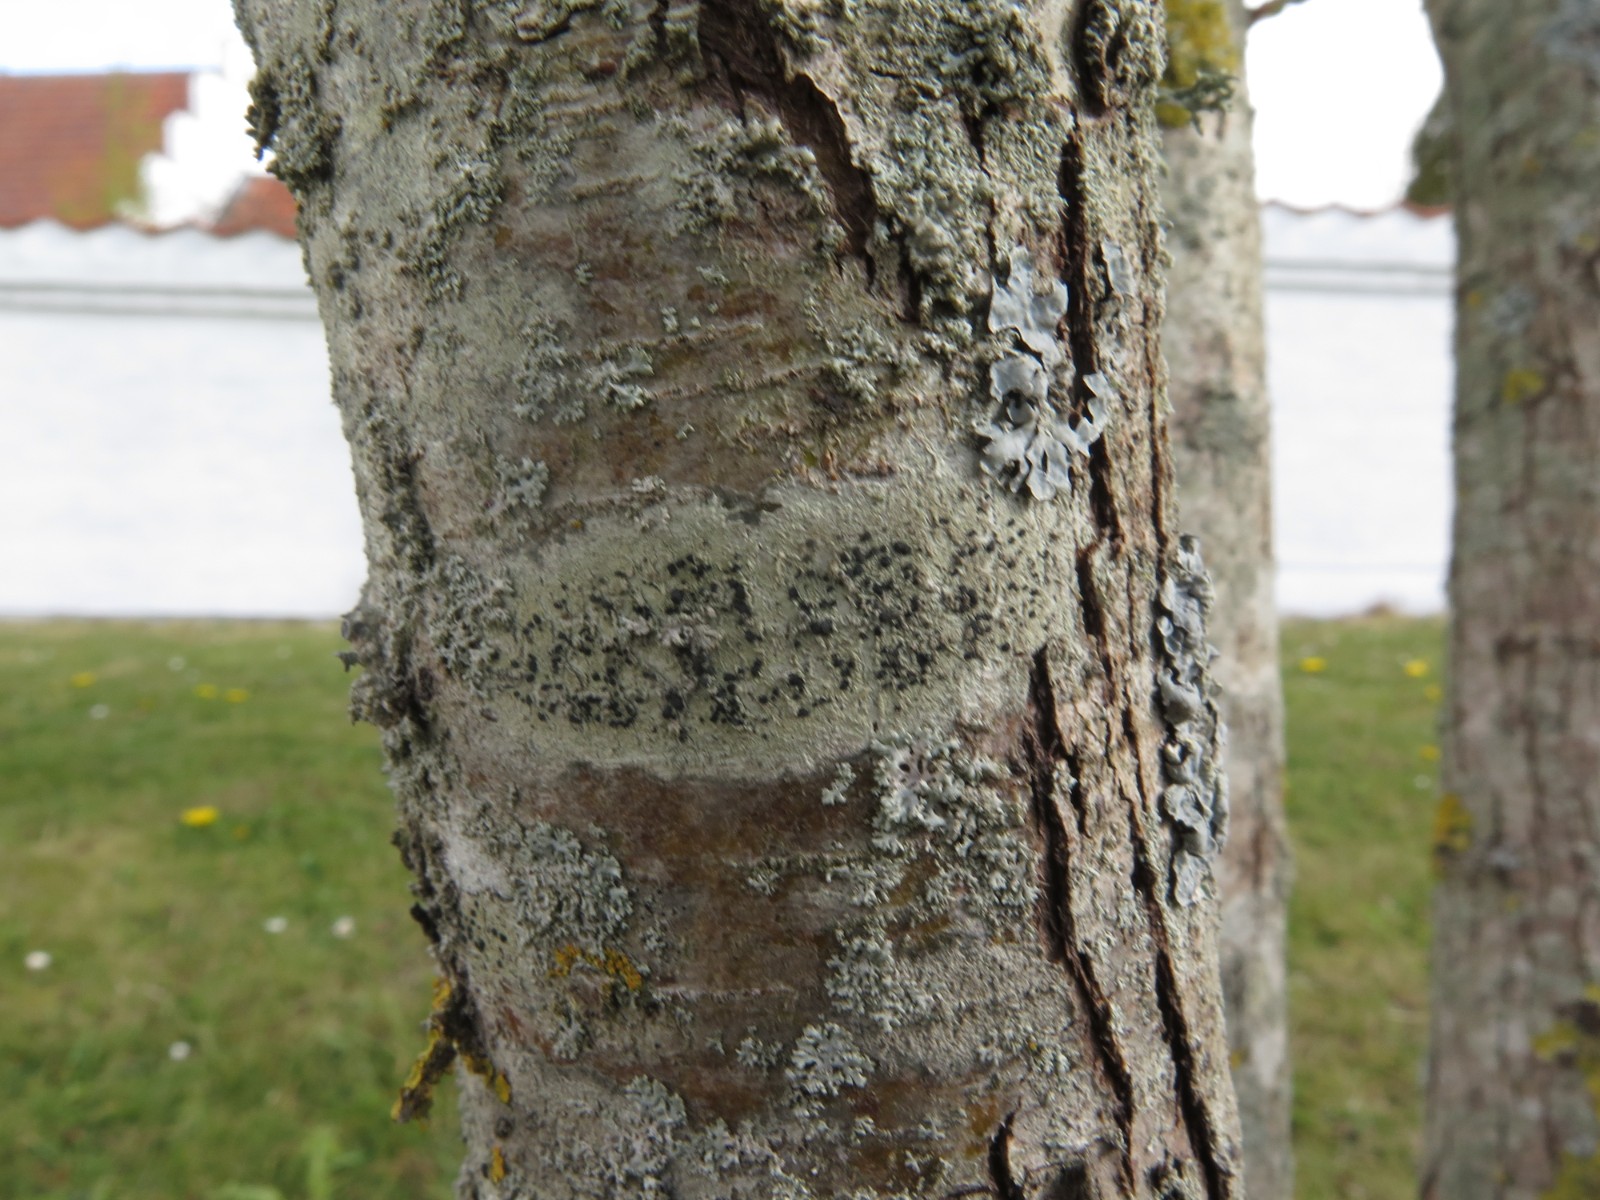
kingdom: Fungi
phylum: Ascomycota
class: Lecanoromycetes
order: Lecanorales
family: Lecanoraceae
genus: Lecidella
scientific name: Lecidella elaeochroma
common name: grågrøn skivelav
